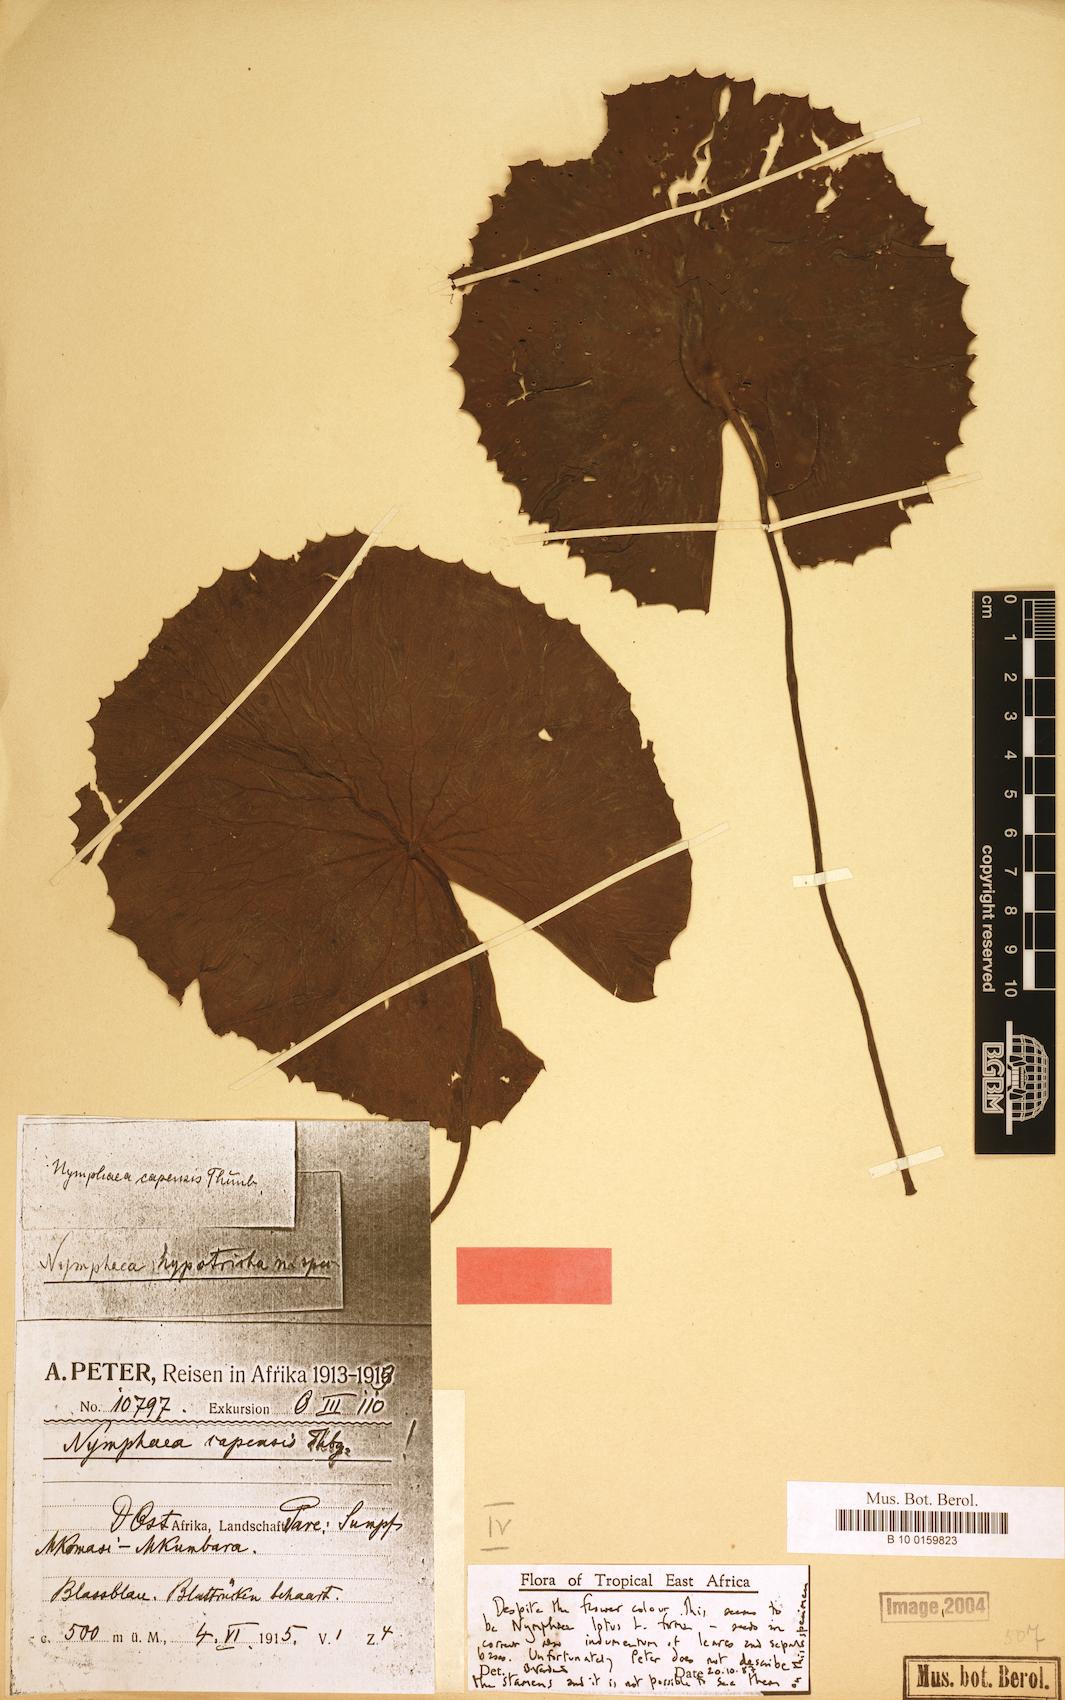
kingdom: Plantae
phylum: Tracheophyta
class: Magnoliopsida
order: Nymphaeales
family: Nymphaeaceae
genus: Nymphaea
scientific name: Nymphaea lotus
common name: White egyptian lotus
